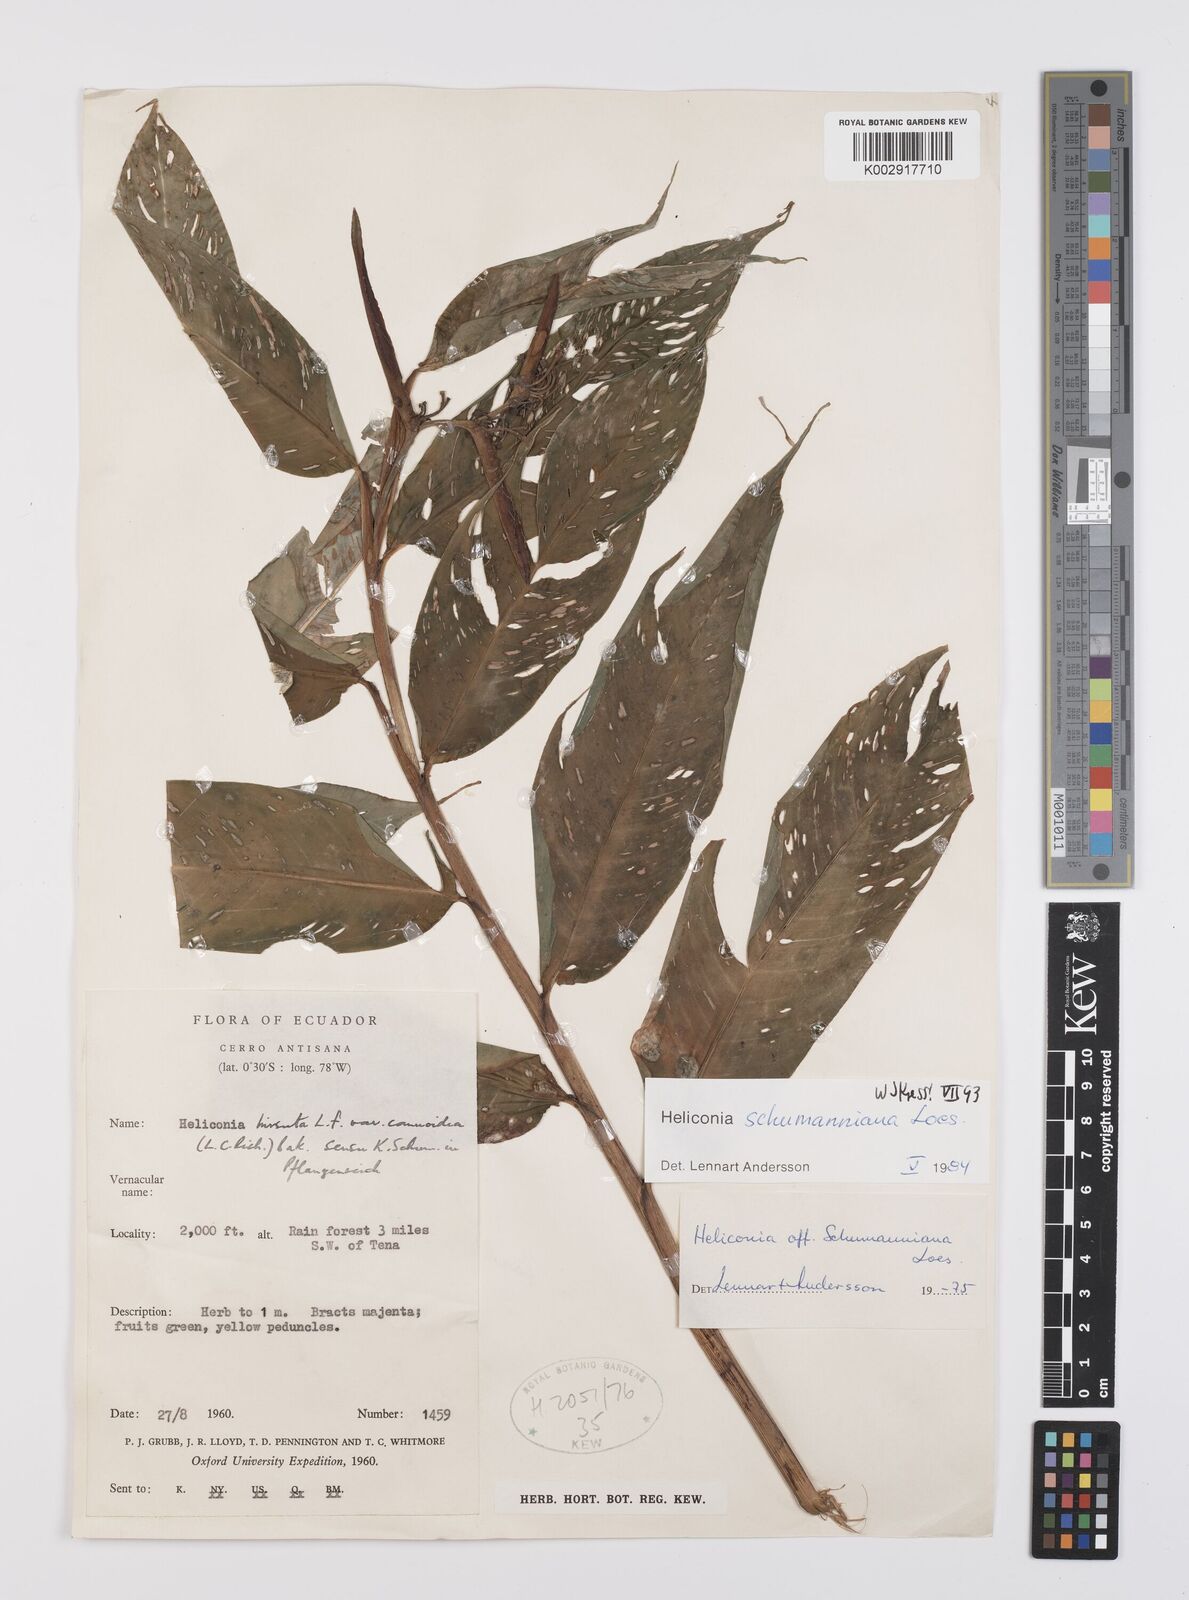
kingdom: Plantae
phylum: Tracheophyta
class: Liliopsida
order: Zingiberales
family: Heliconiaceae
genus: Heliconia
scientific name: Heliconia schumanniana
